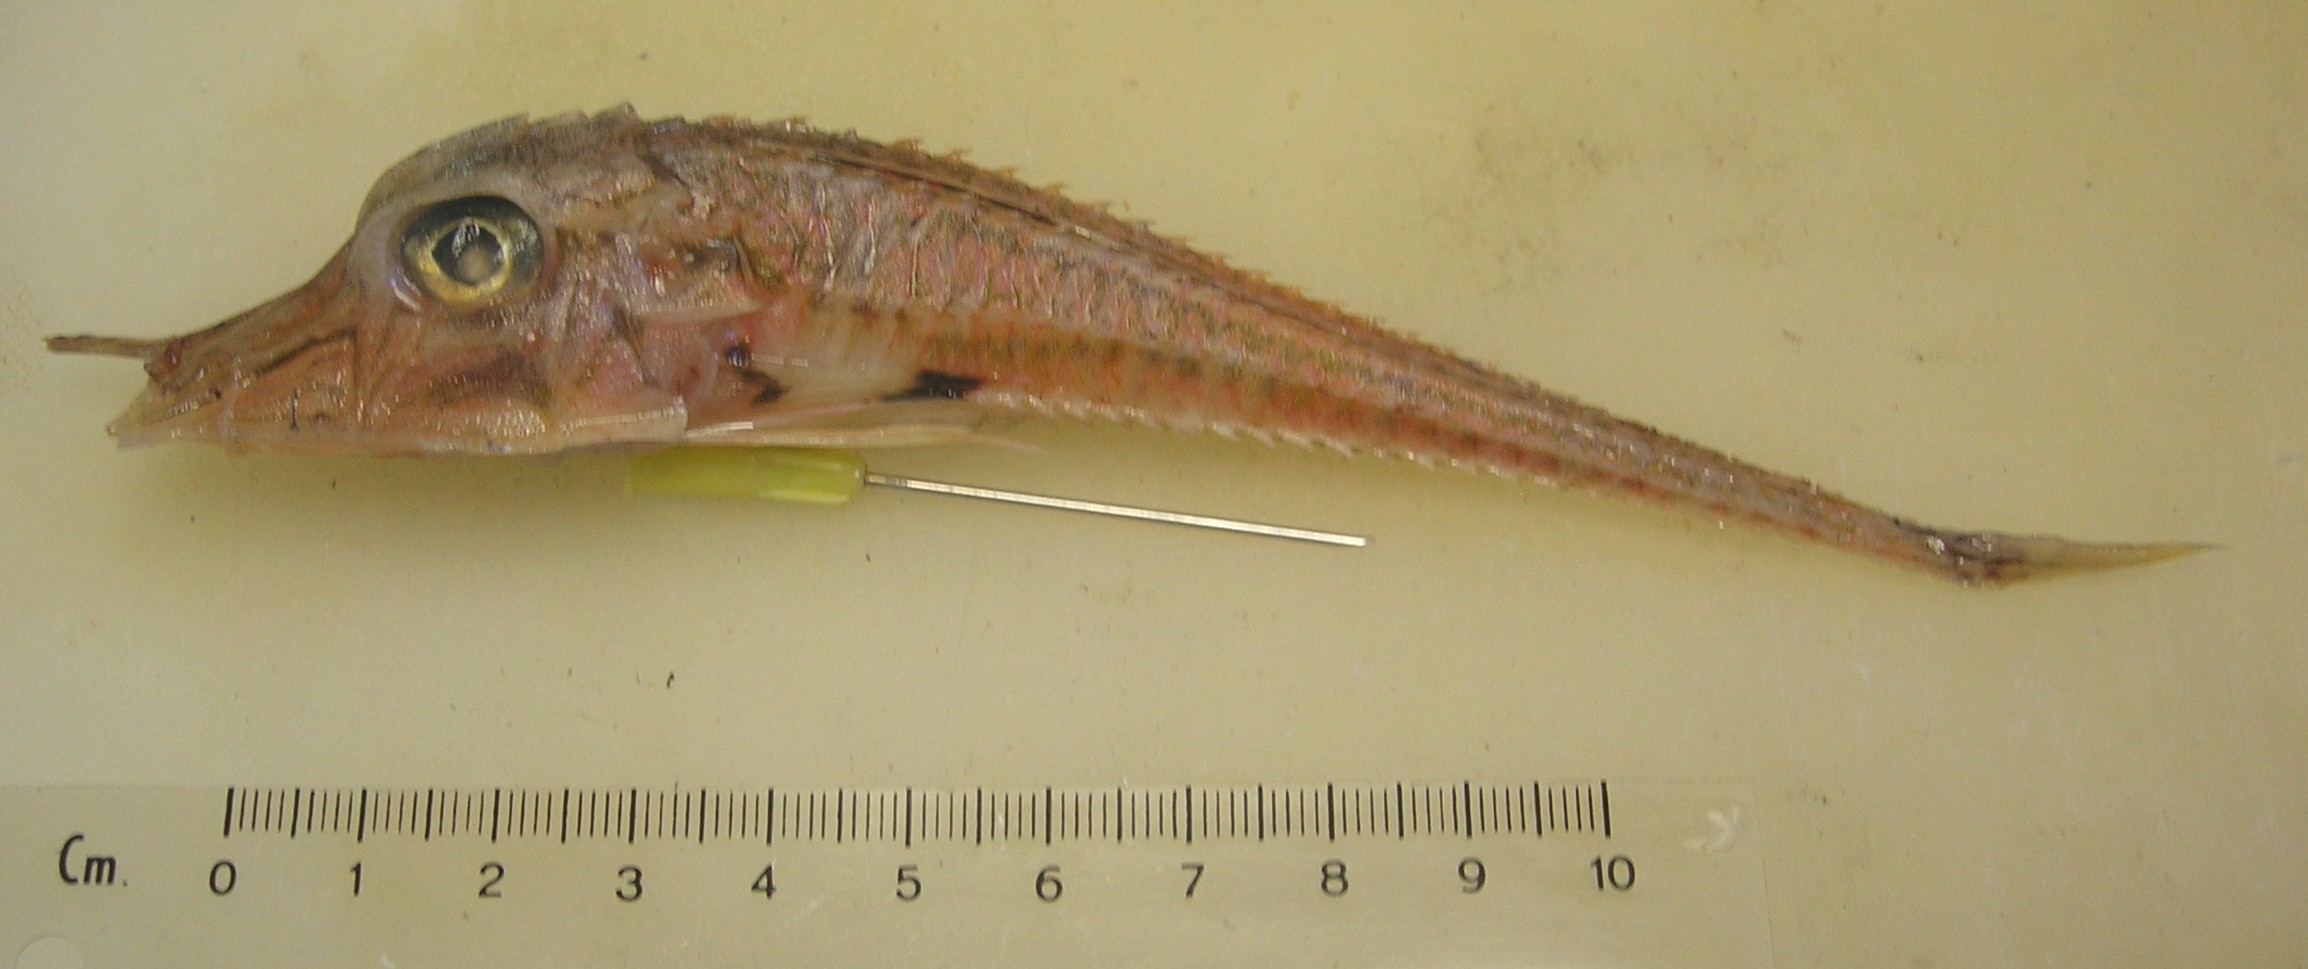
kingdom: Animalia
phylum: Chordata
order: Scorpaeniformes
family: Peristediidae
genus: Peristedion
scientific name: Peristedion weberi
